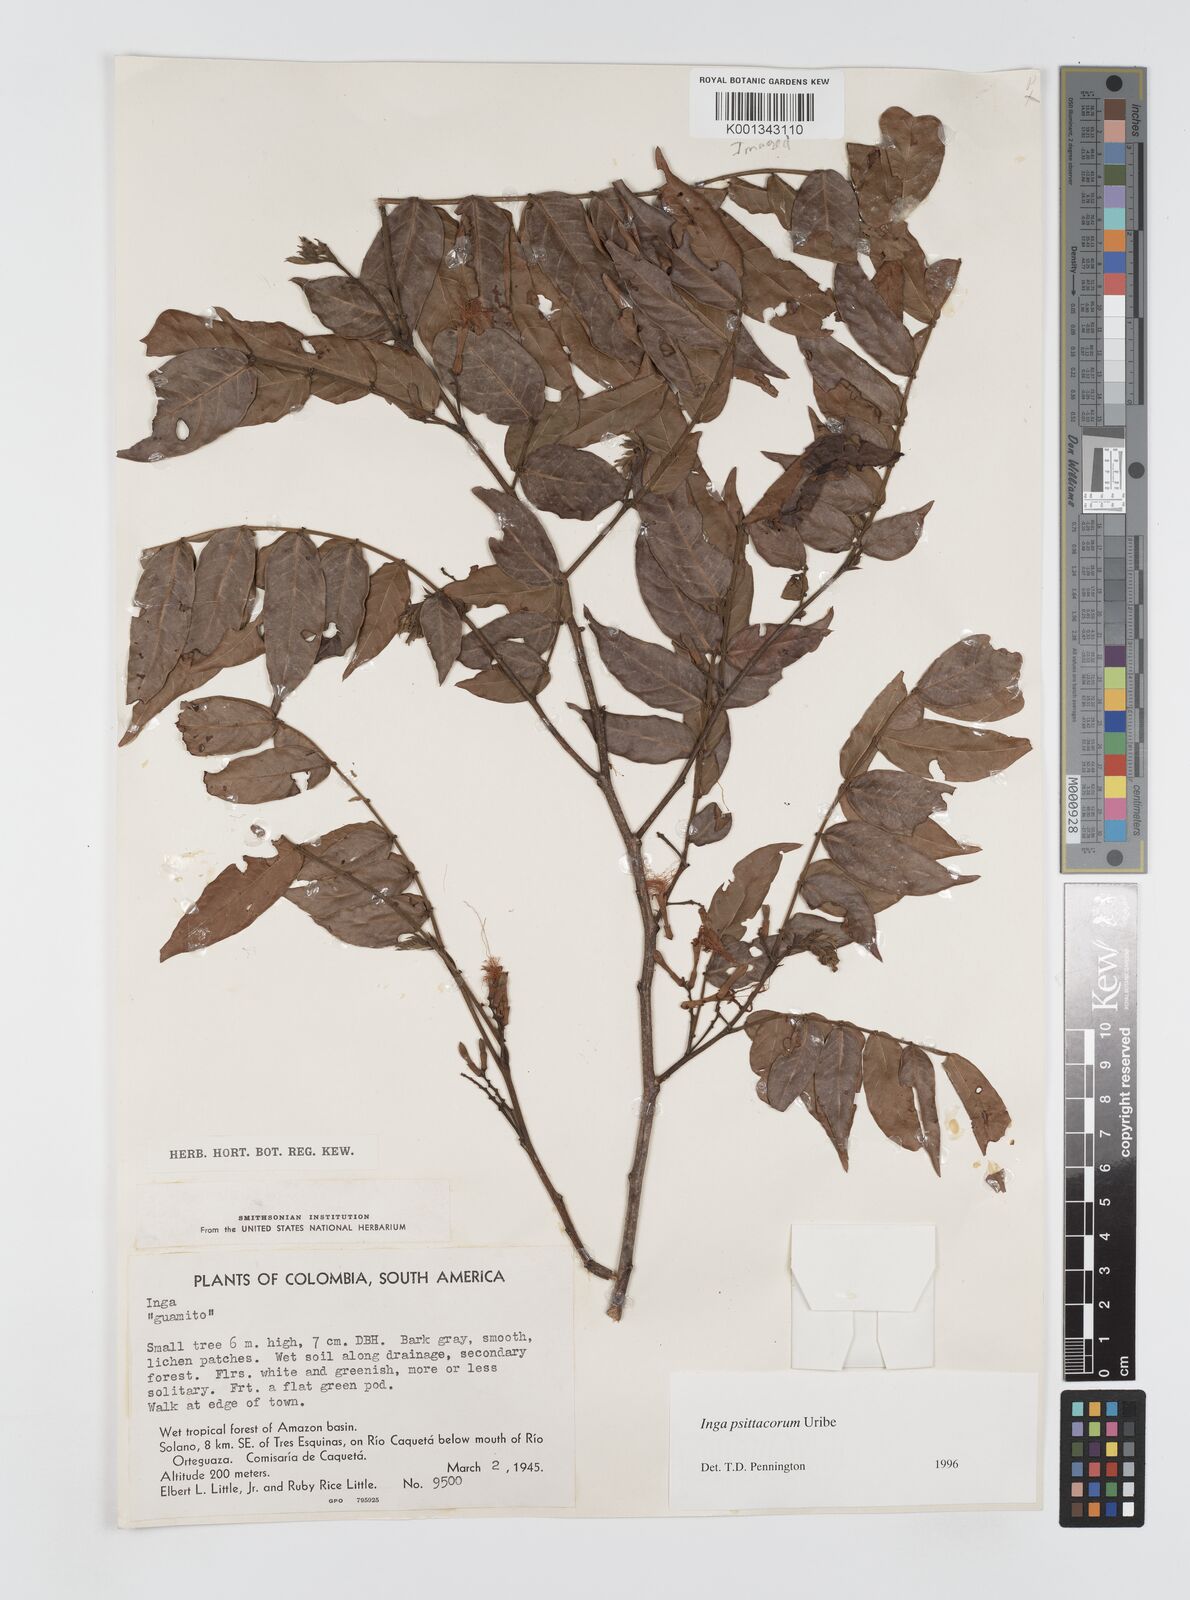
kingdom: Plantae
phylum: Tracheophyta
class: Magnoliopsida
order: Fabales
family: Fabaceae
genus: Inga
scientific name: Inga psittacorum
